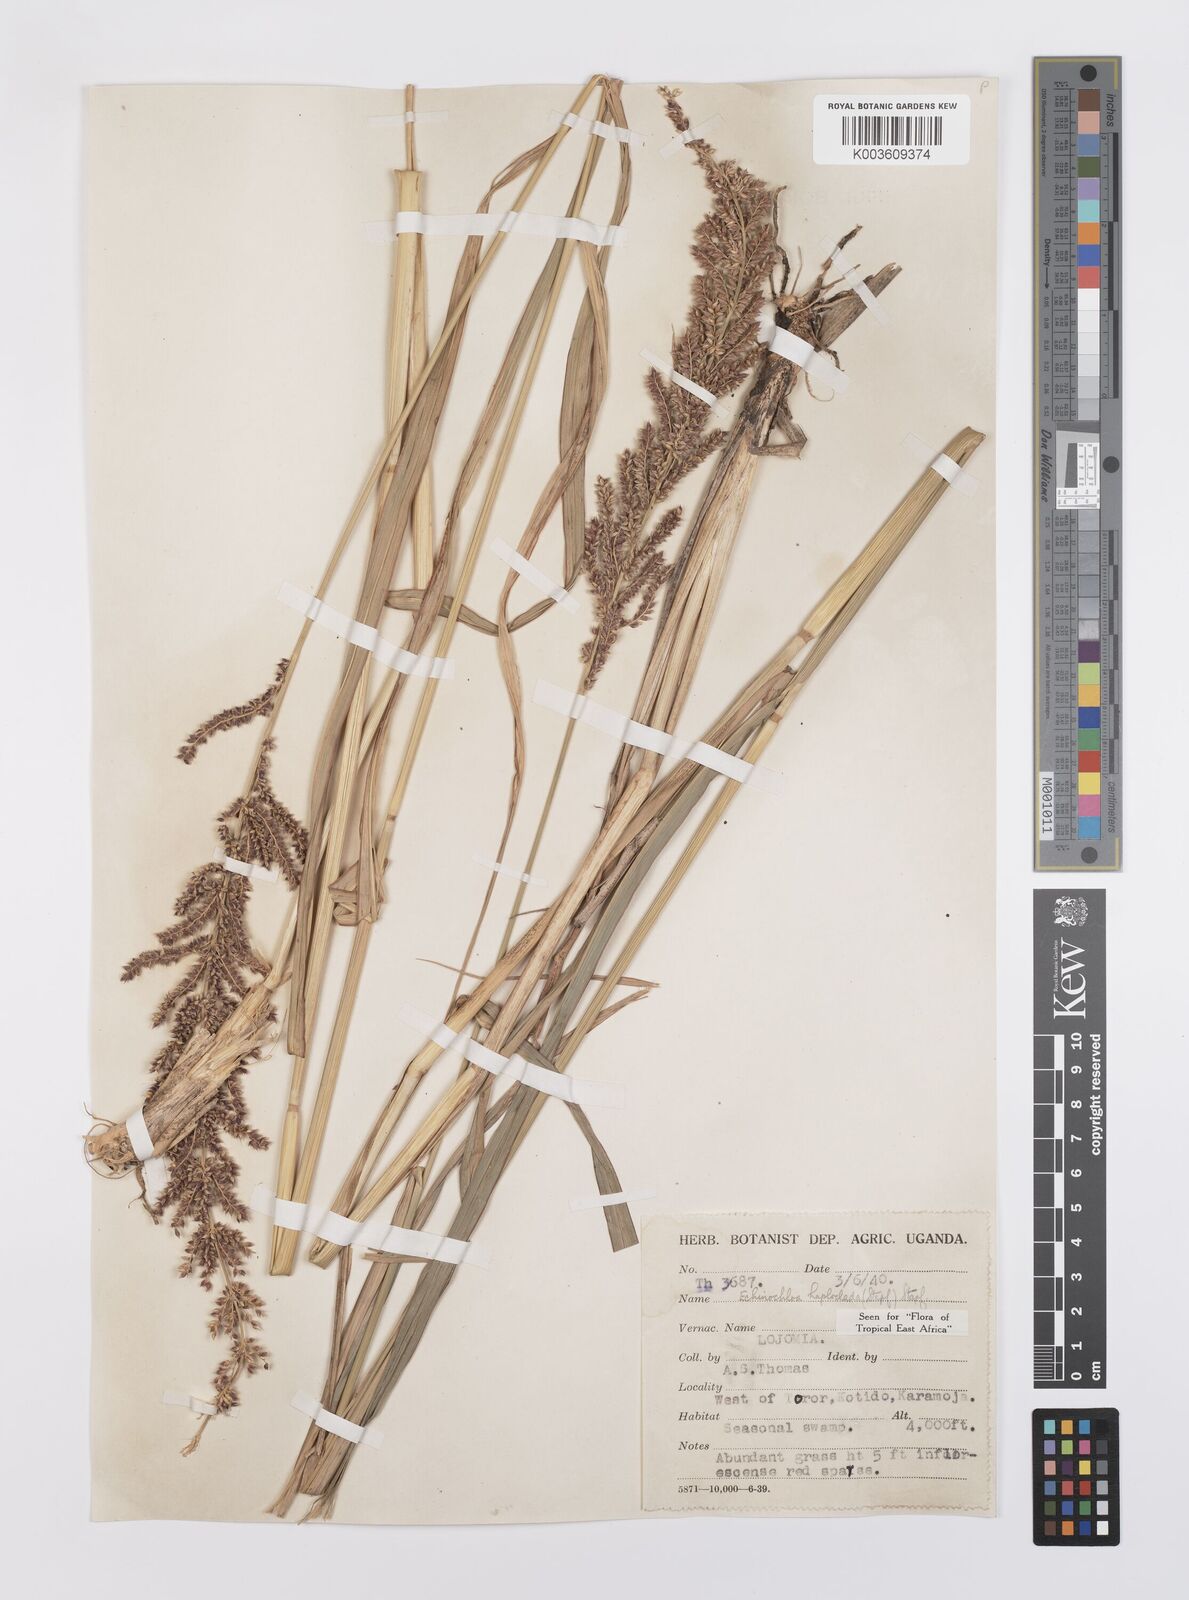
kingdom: Plantae
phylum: Tracheophyta
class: Liliopsida
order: Poales
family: Poaceae
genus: Echinochloa
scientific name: Echinochloa haploclada
